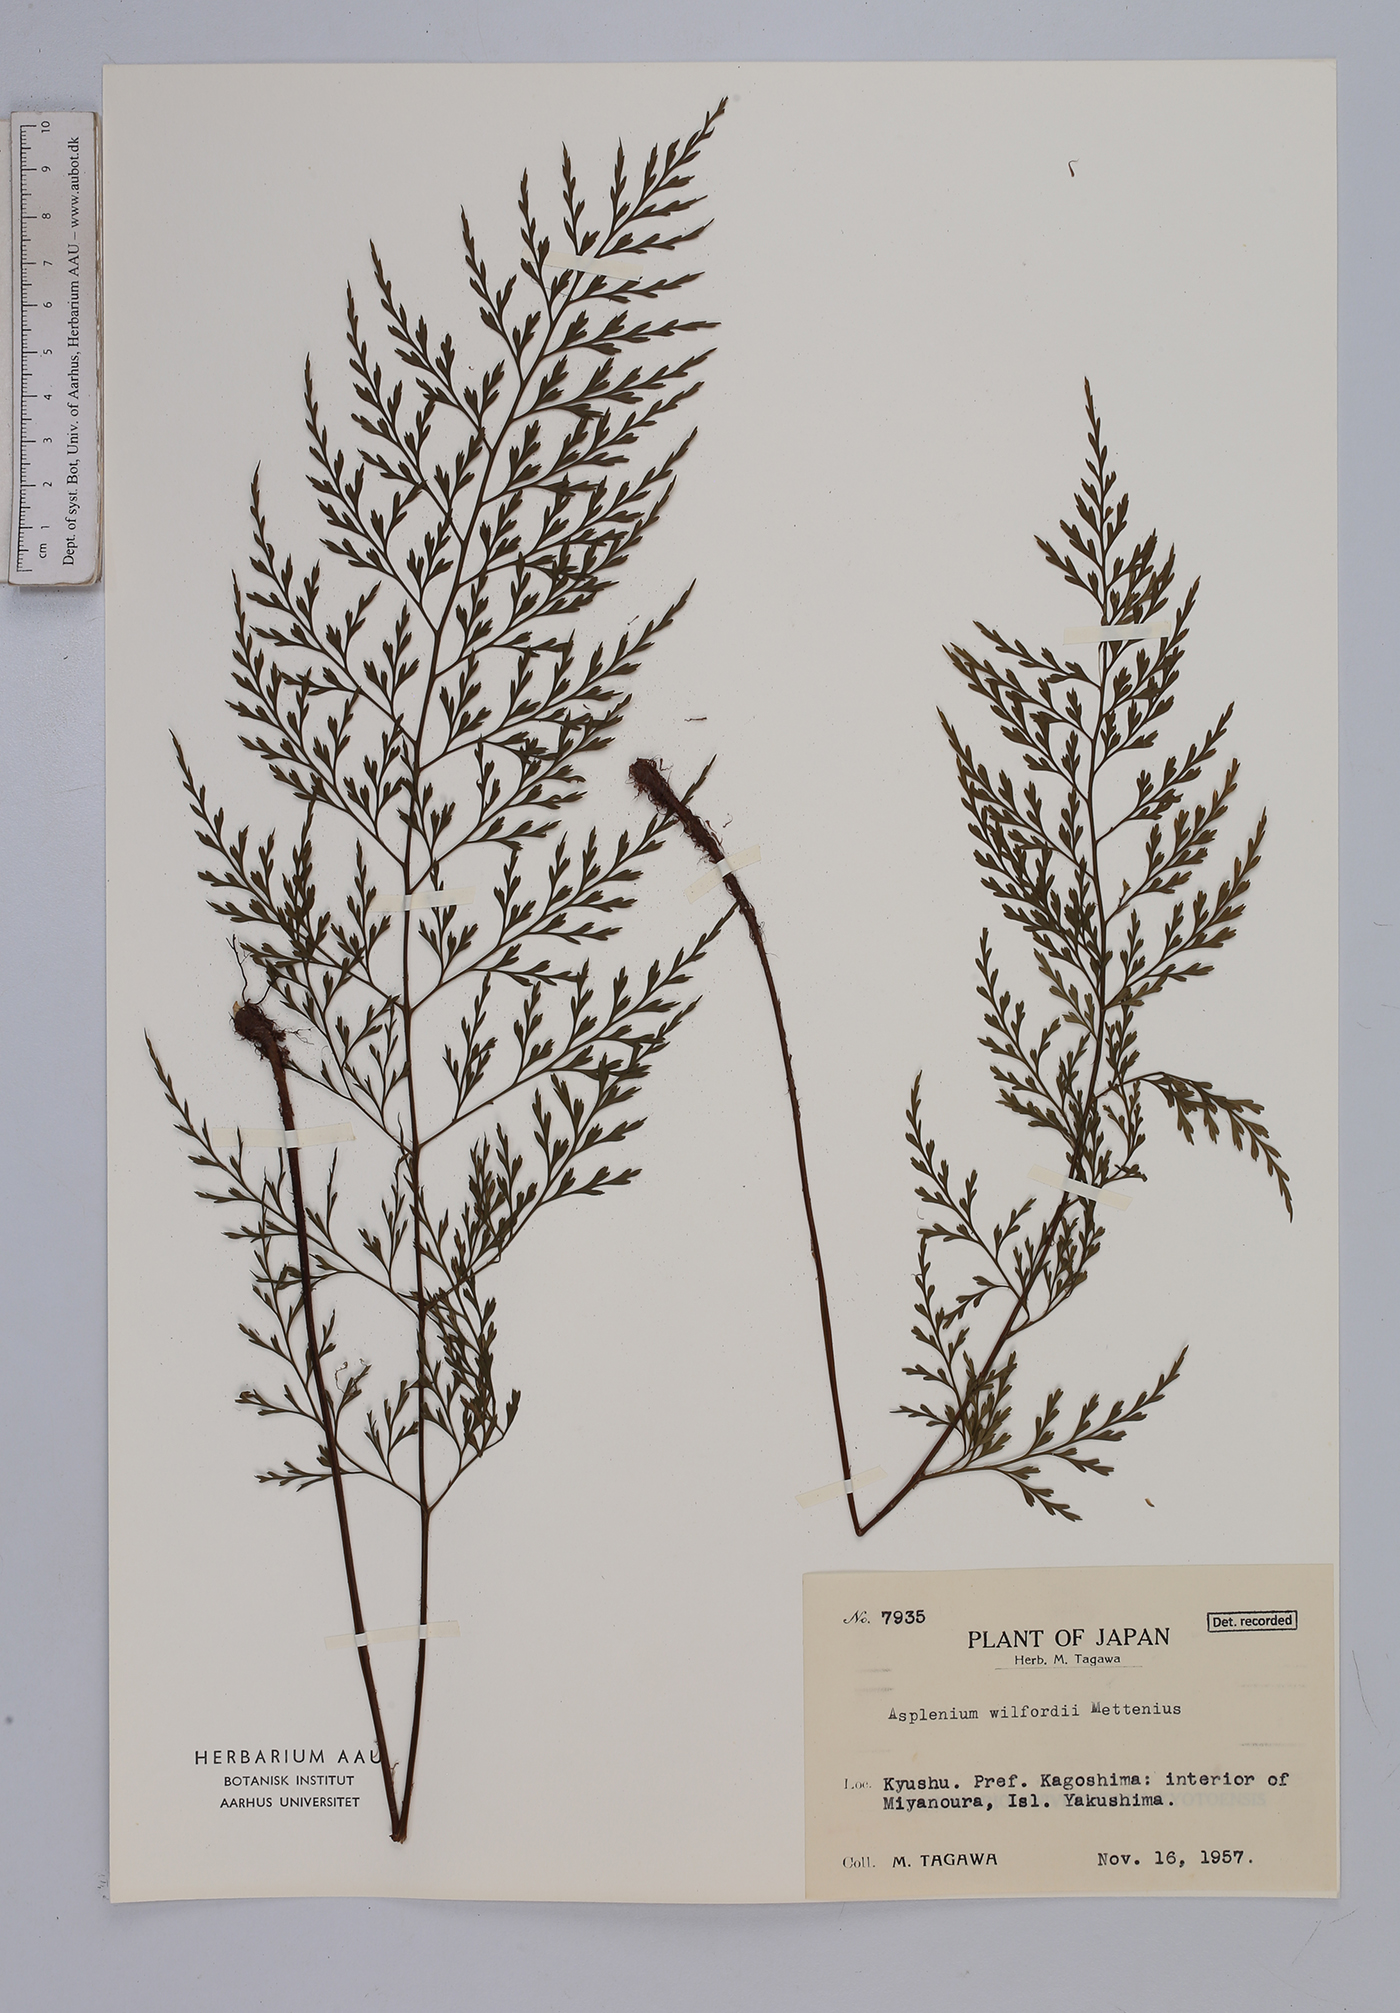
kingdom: Plantae
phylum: Tracheophyta
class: Polypodiopsida
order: Polypodiales
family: Aspleniaceae
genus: Asplenium
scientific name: Asplenium wilfordii
